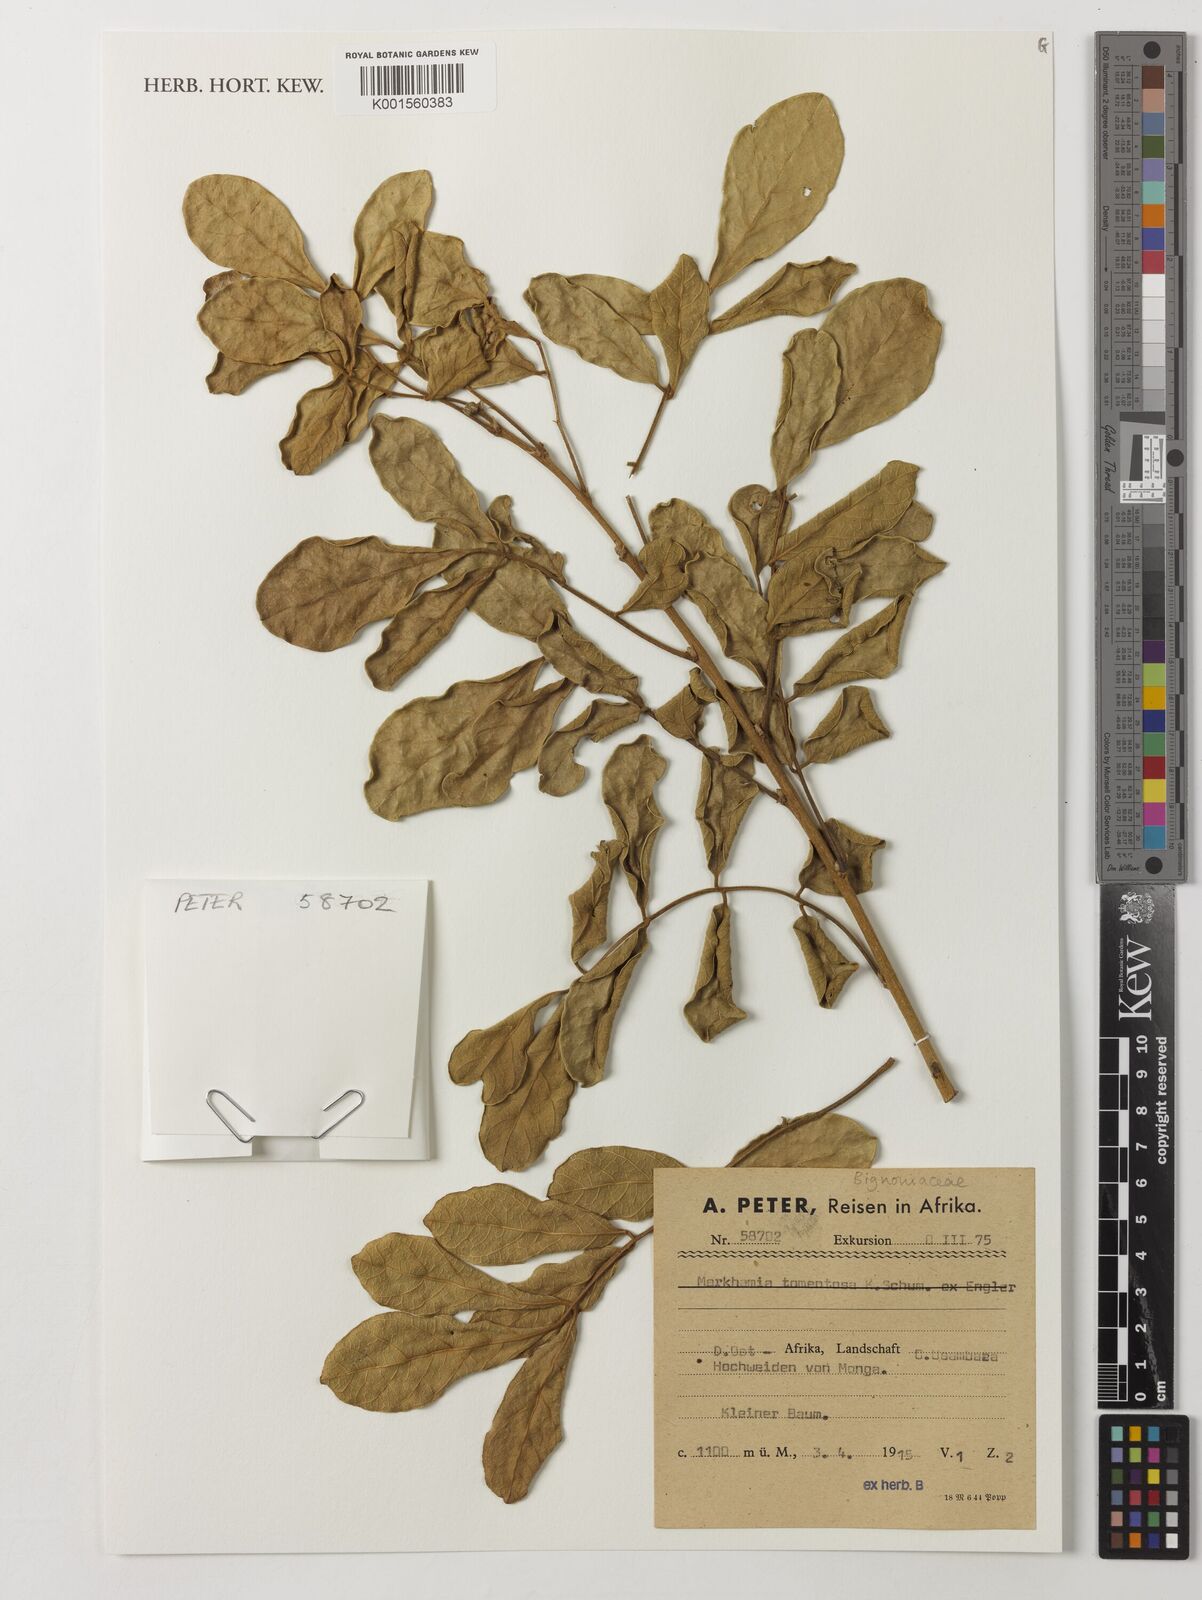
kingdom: Plantae
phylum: Tracheophyta
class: Magnoliopsida
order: Lamiales
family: Bignoniaceae
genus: Markhamia
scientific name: Markhamia tomentosa
